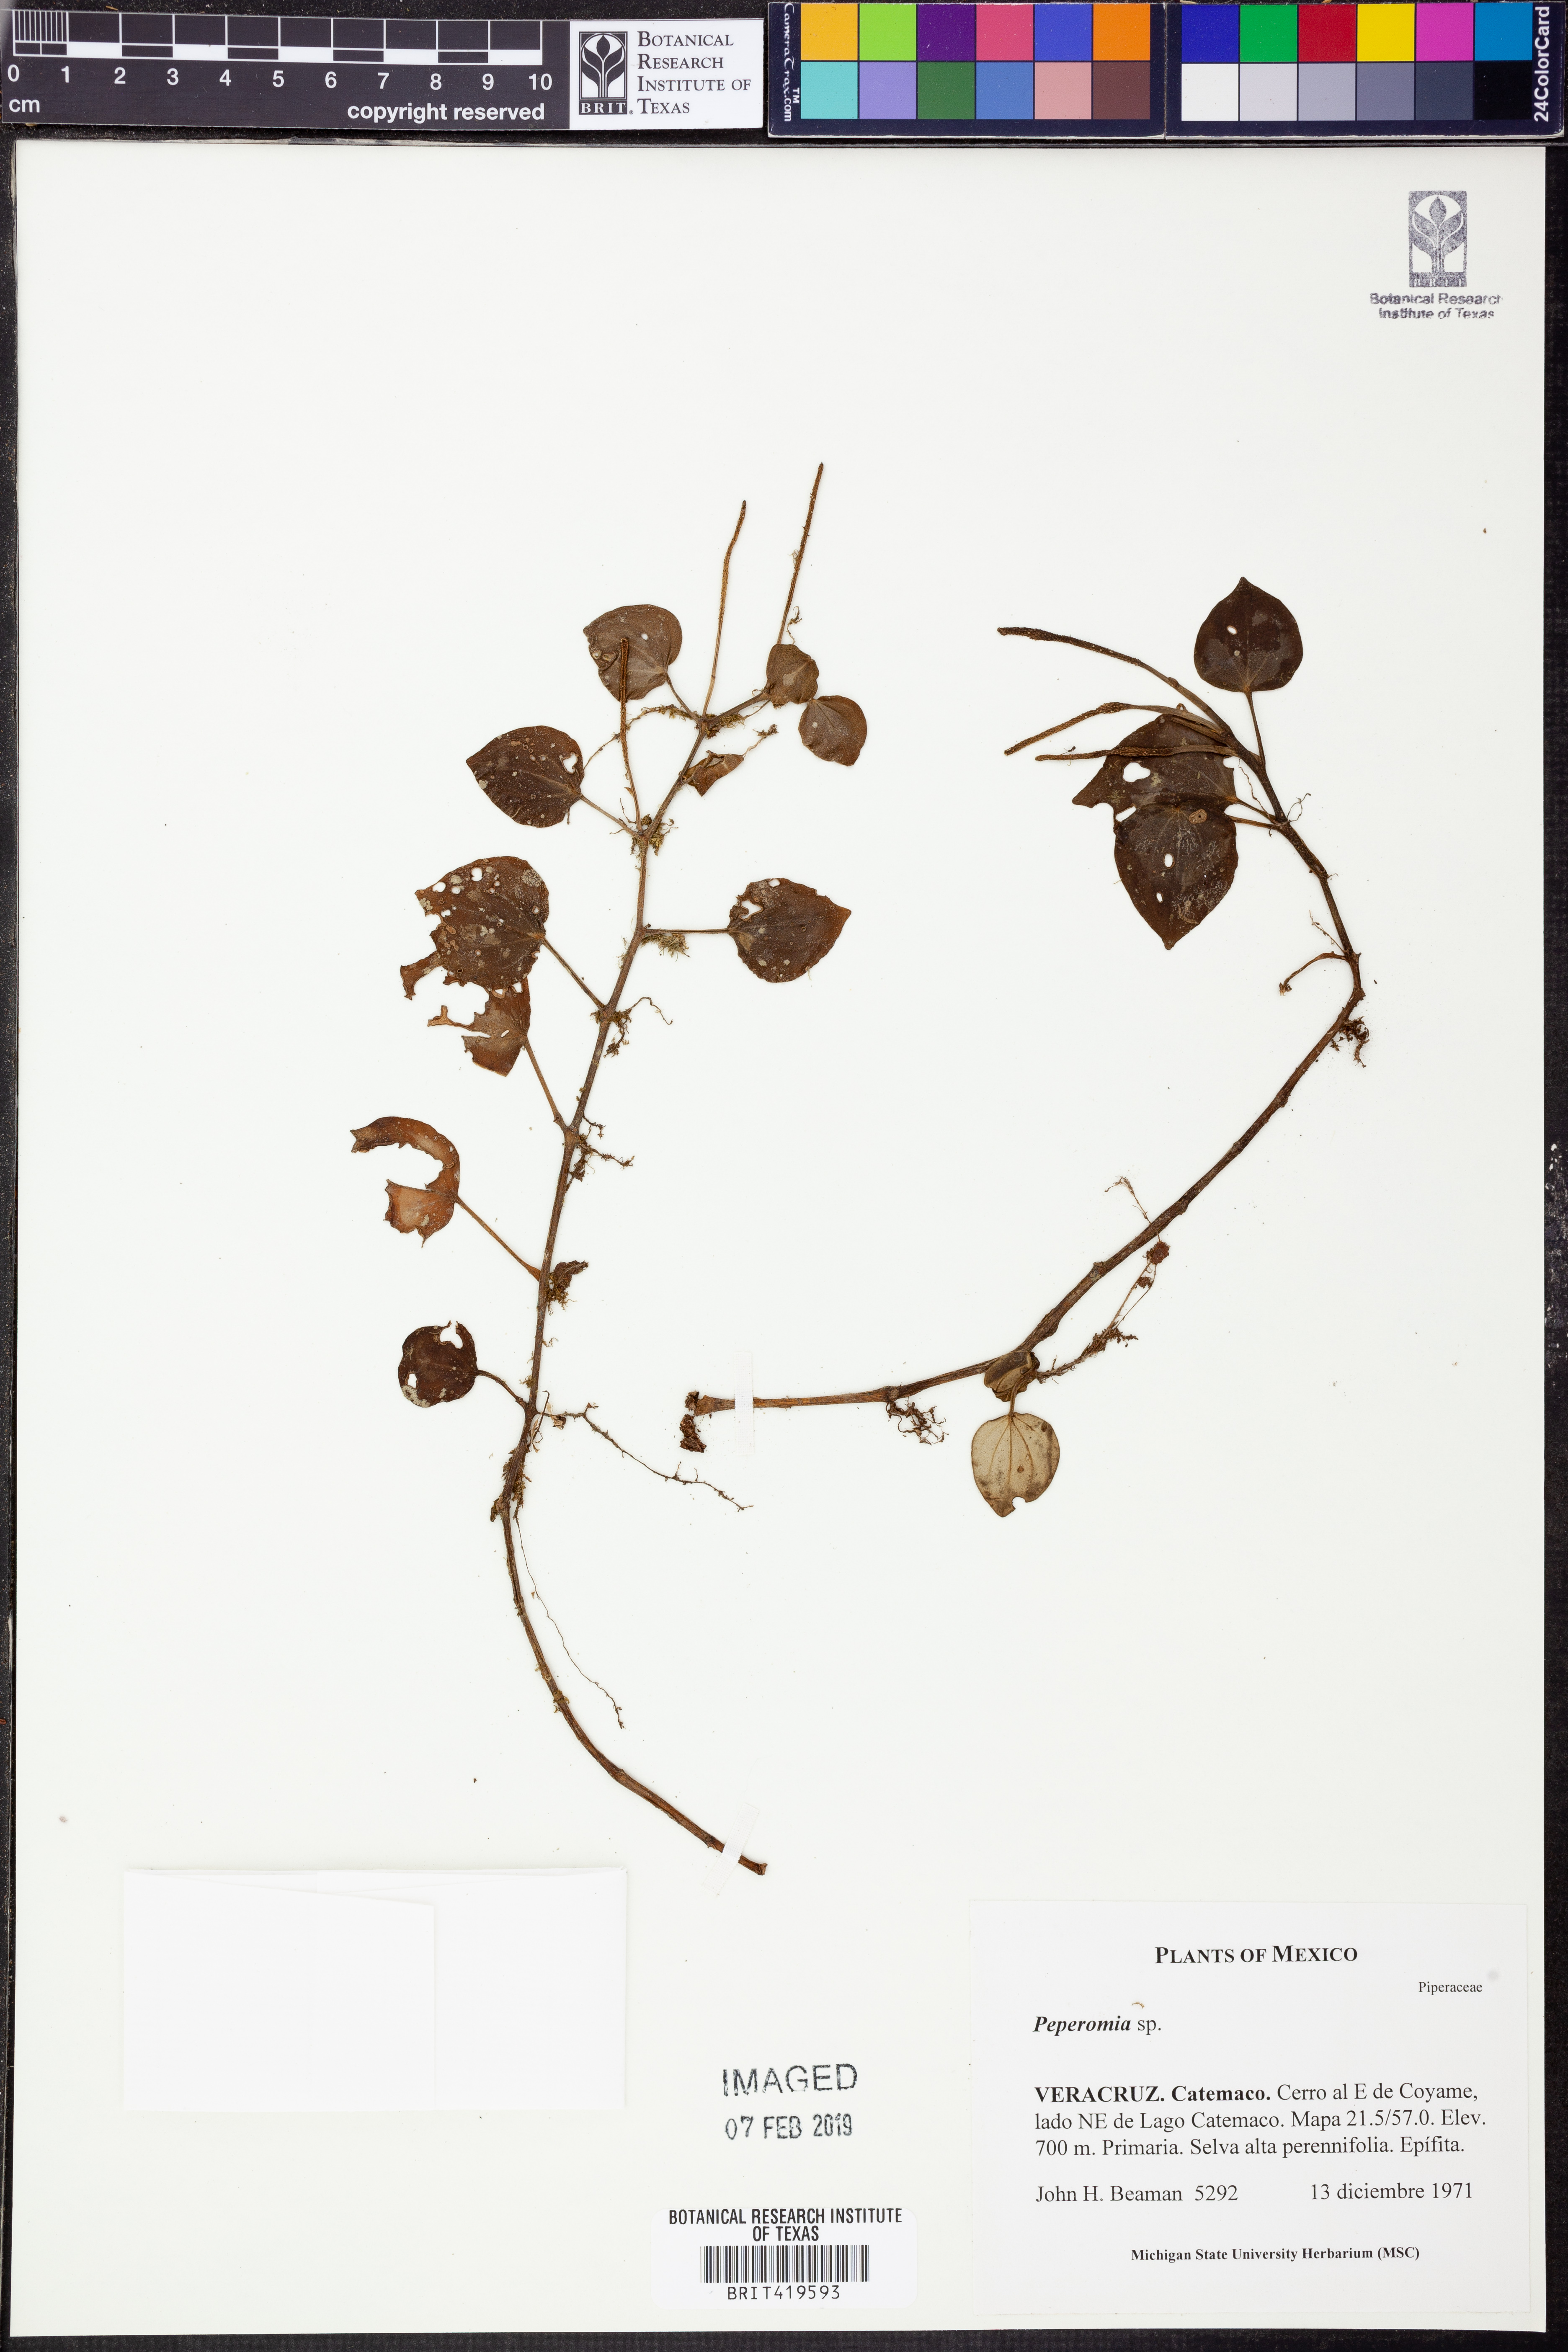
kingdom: Plantae
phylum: Tracheophyta
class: Magnoliopsida
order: Piperales
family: Piperaceae
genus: Peperomia
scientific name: Peperomia
